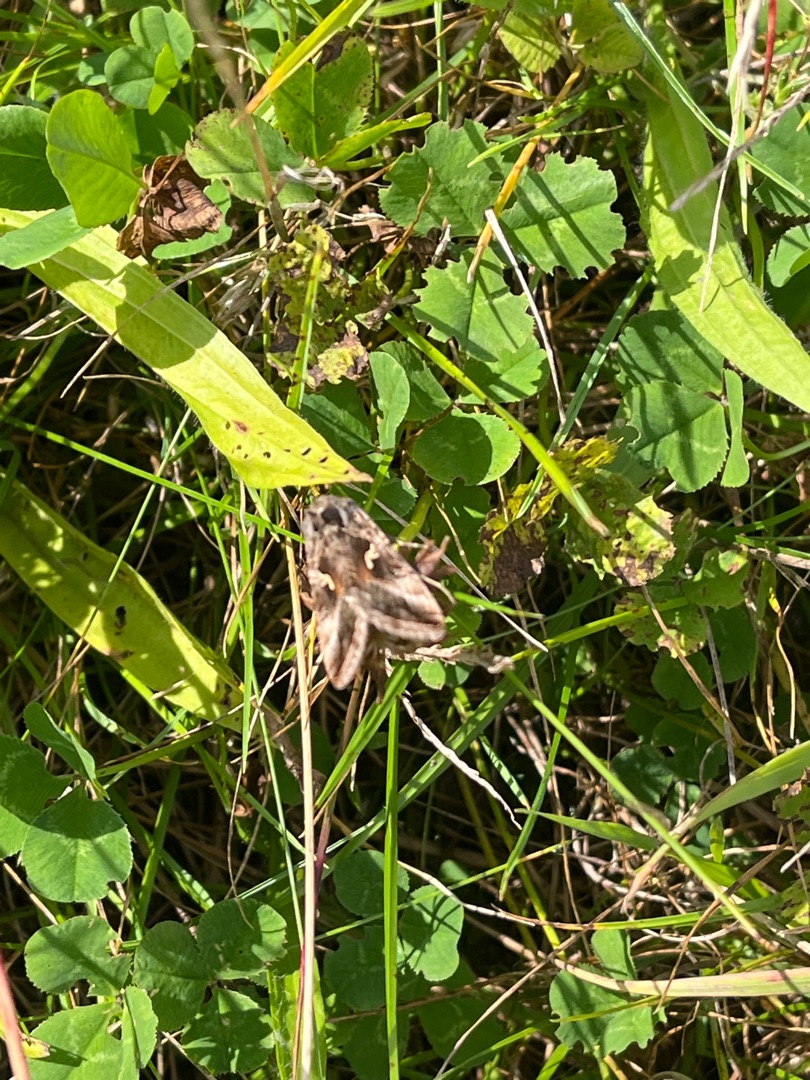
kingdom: Animalia
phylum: Arthropoda
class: Insecta
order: Lepidoptera
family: Noctuidae
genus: Autographa
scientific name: Autographa gamma
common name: Gammaugle
